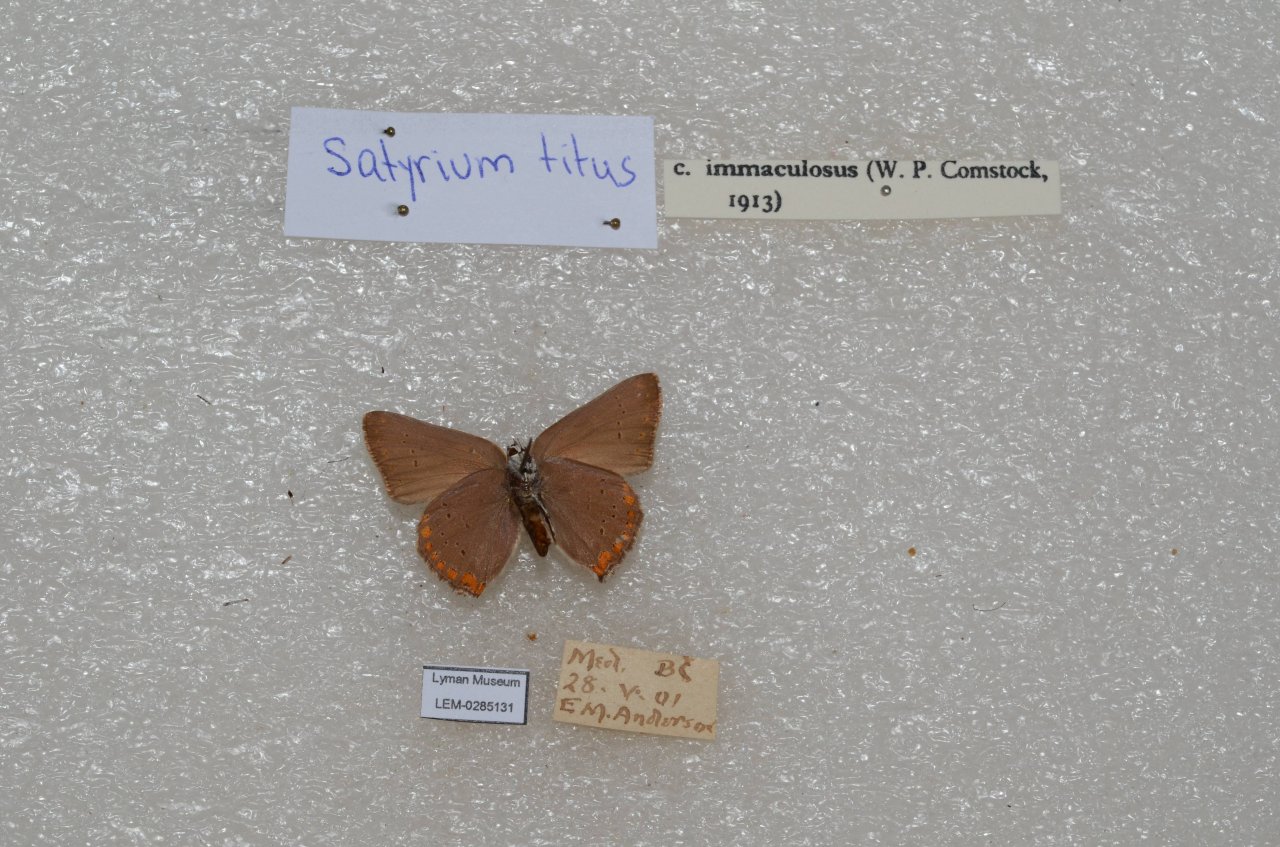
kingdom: Animalia
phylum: Arthropoda
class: Insecta
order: Lepidoptera
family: Lycaenidae
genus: Harkenclenus
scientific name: Harkenclenus titus
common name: Coral Hairstreak
